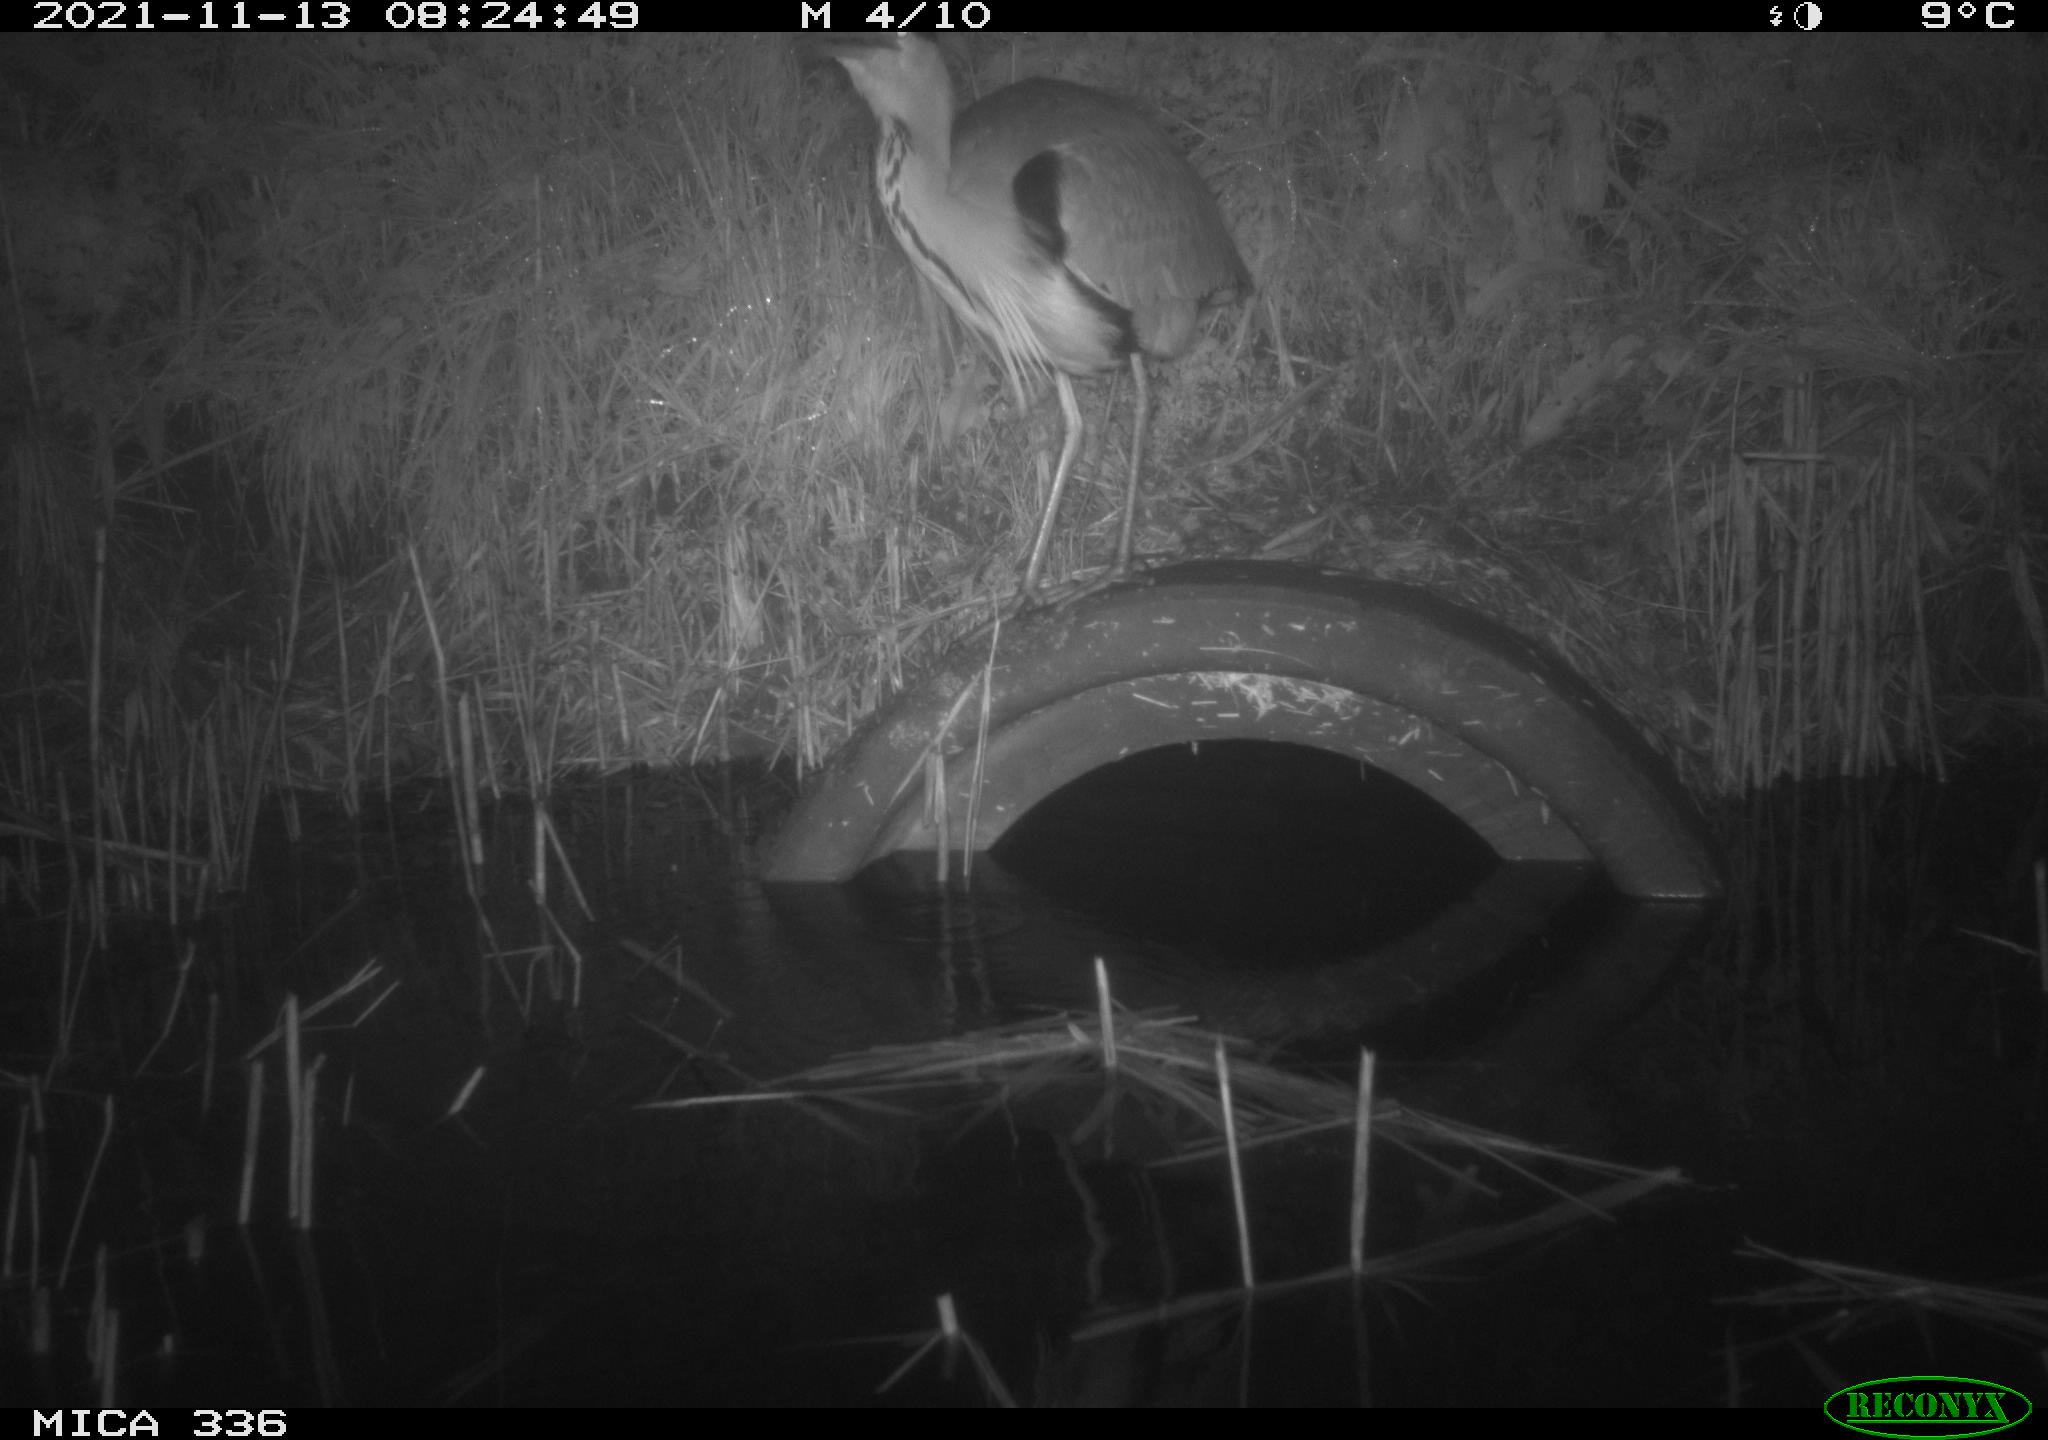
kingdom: Animalia
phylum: Chordata
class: Aves
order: Pelecaniformes
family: Ardeidae
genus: Ardea
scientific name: Ardea cinerea
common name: Grey heron
